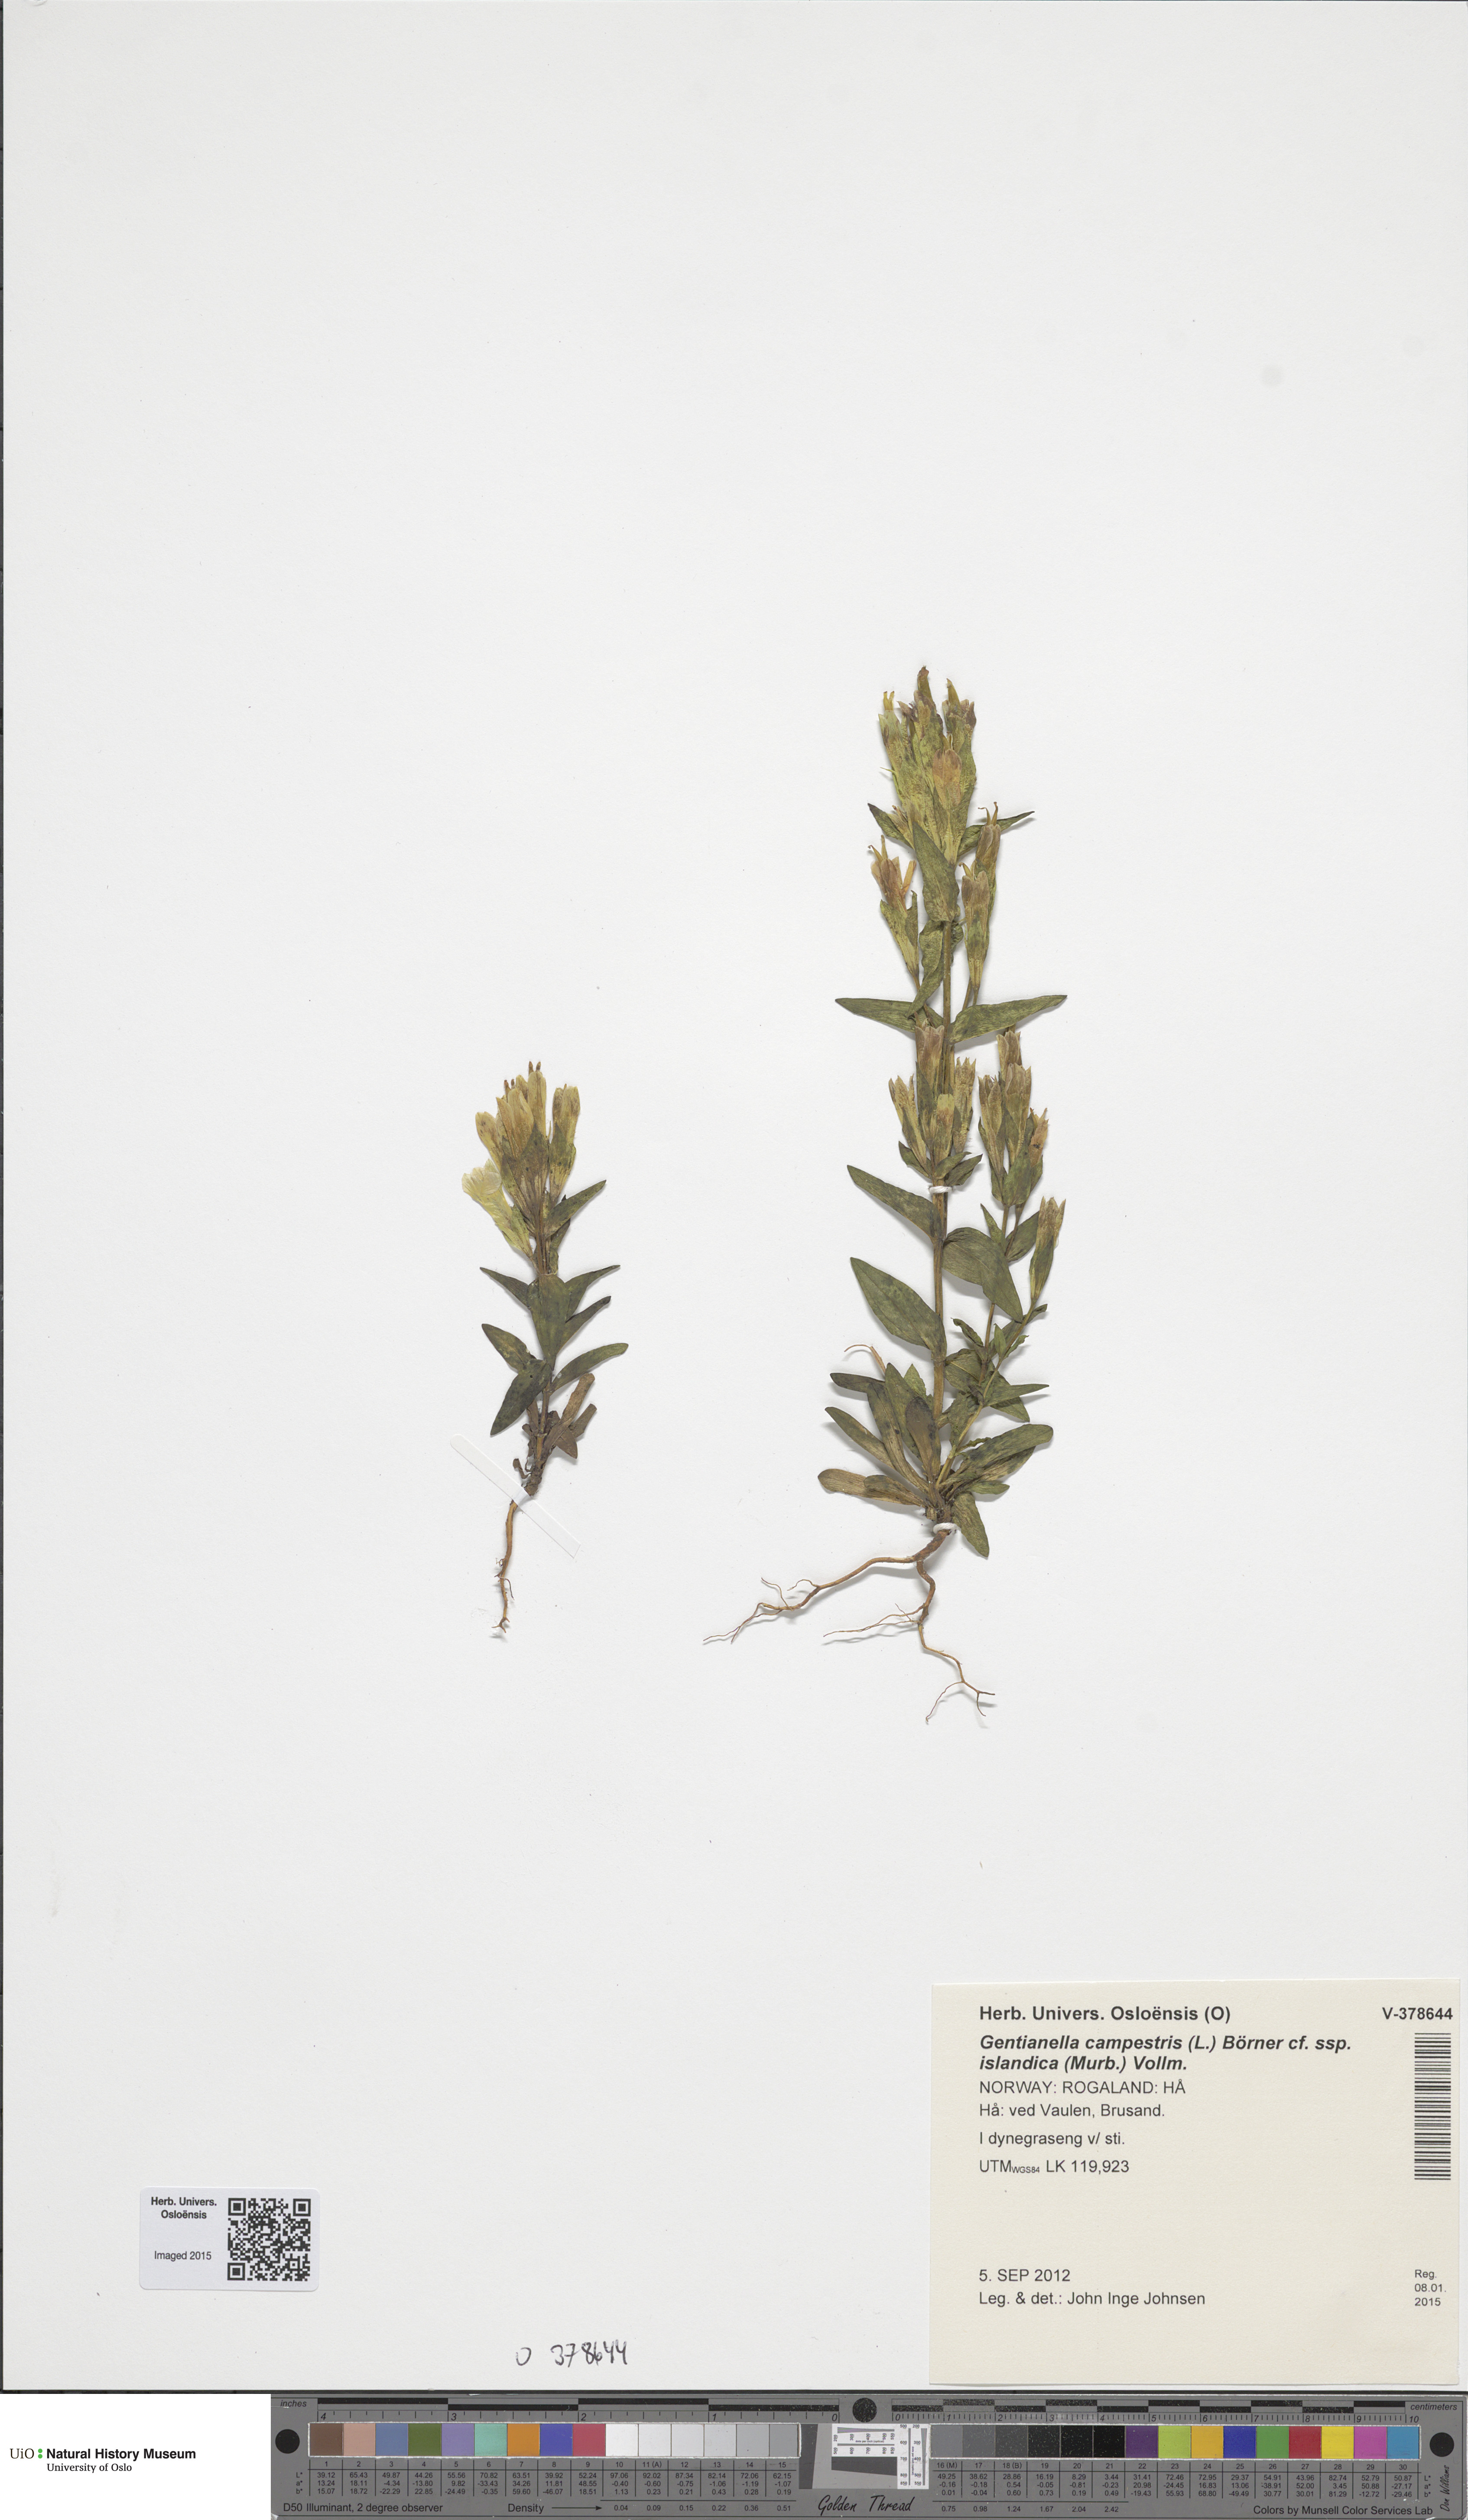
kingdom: Plantae
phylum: Tracheophyta
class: Magnoliopsida
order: Gentianales
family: Gentianaceae
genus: Gentianella
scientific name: Gentianella campestris
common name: Field gentian
